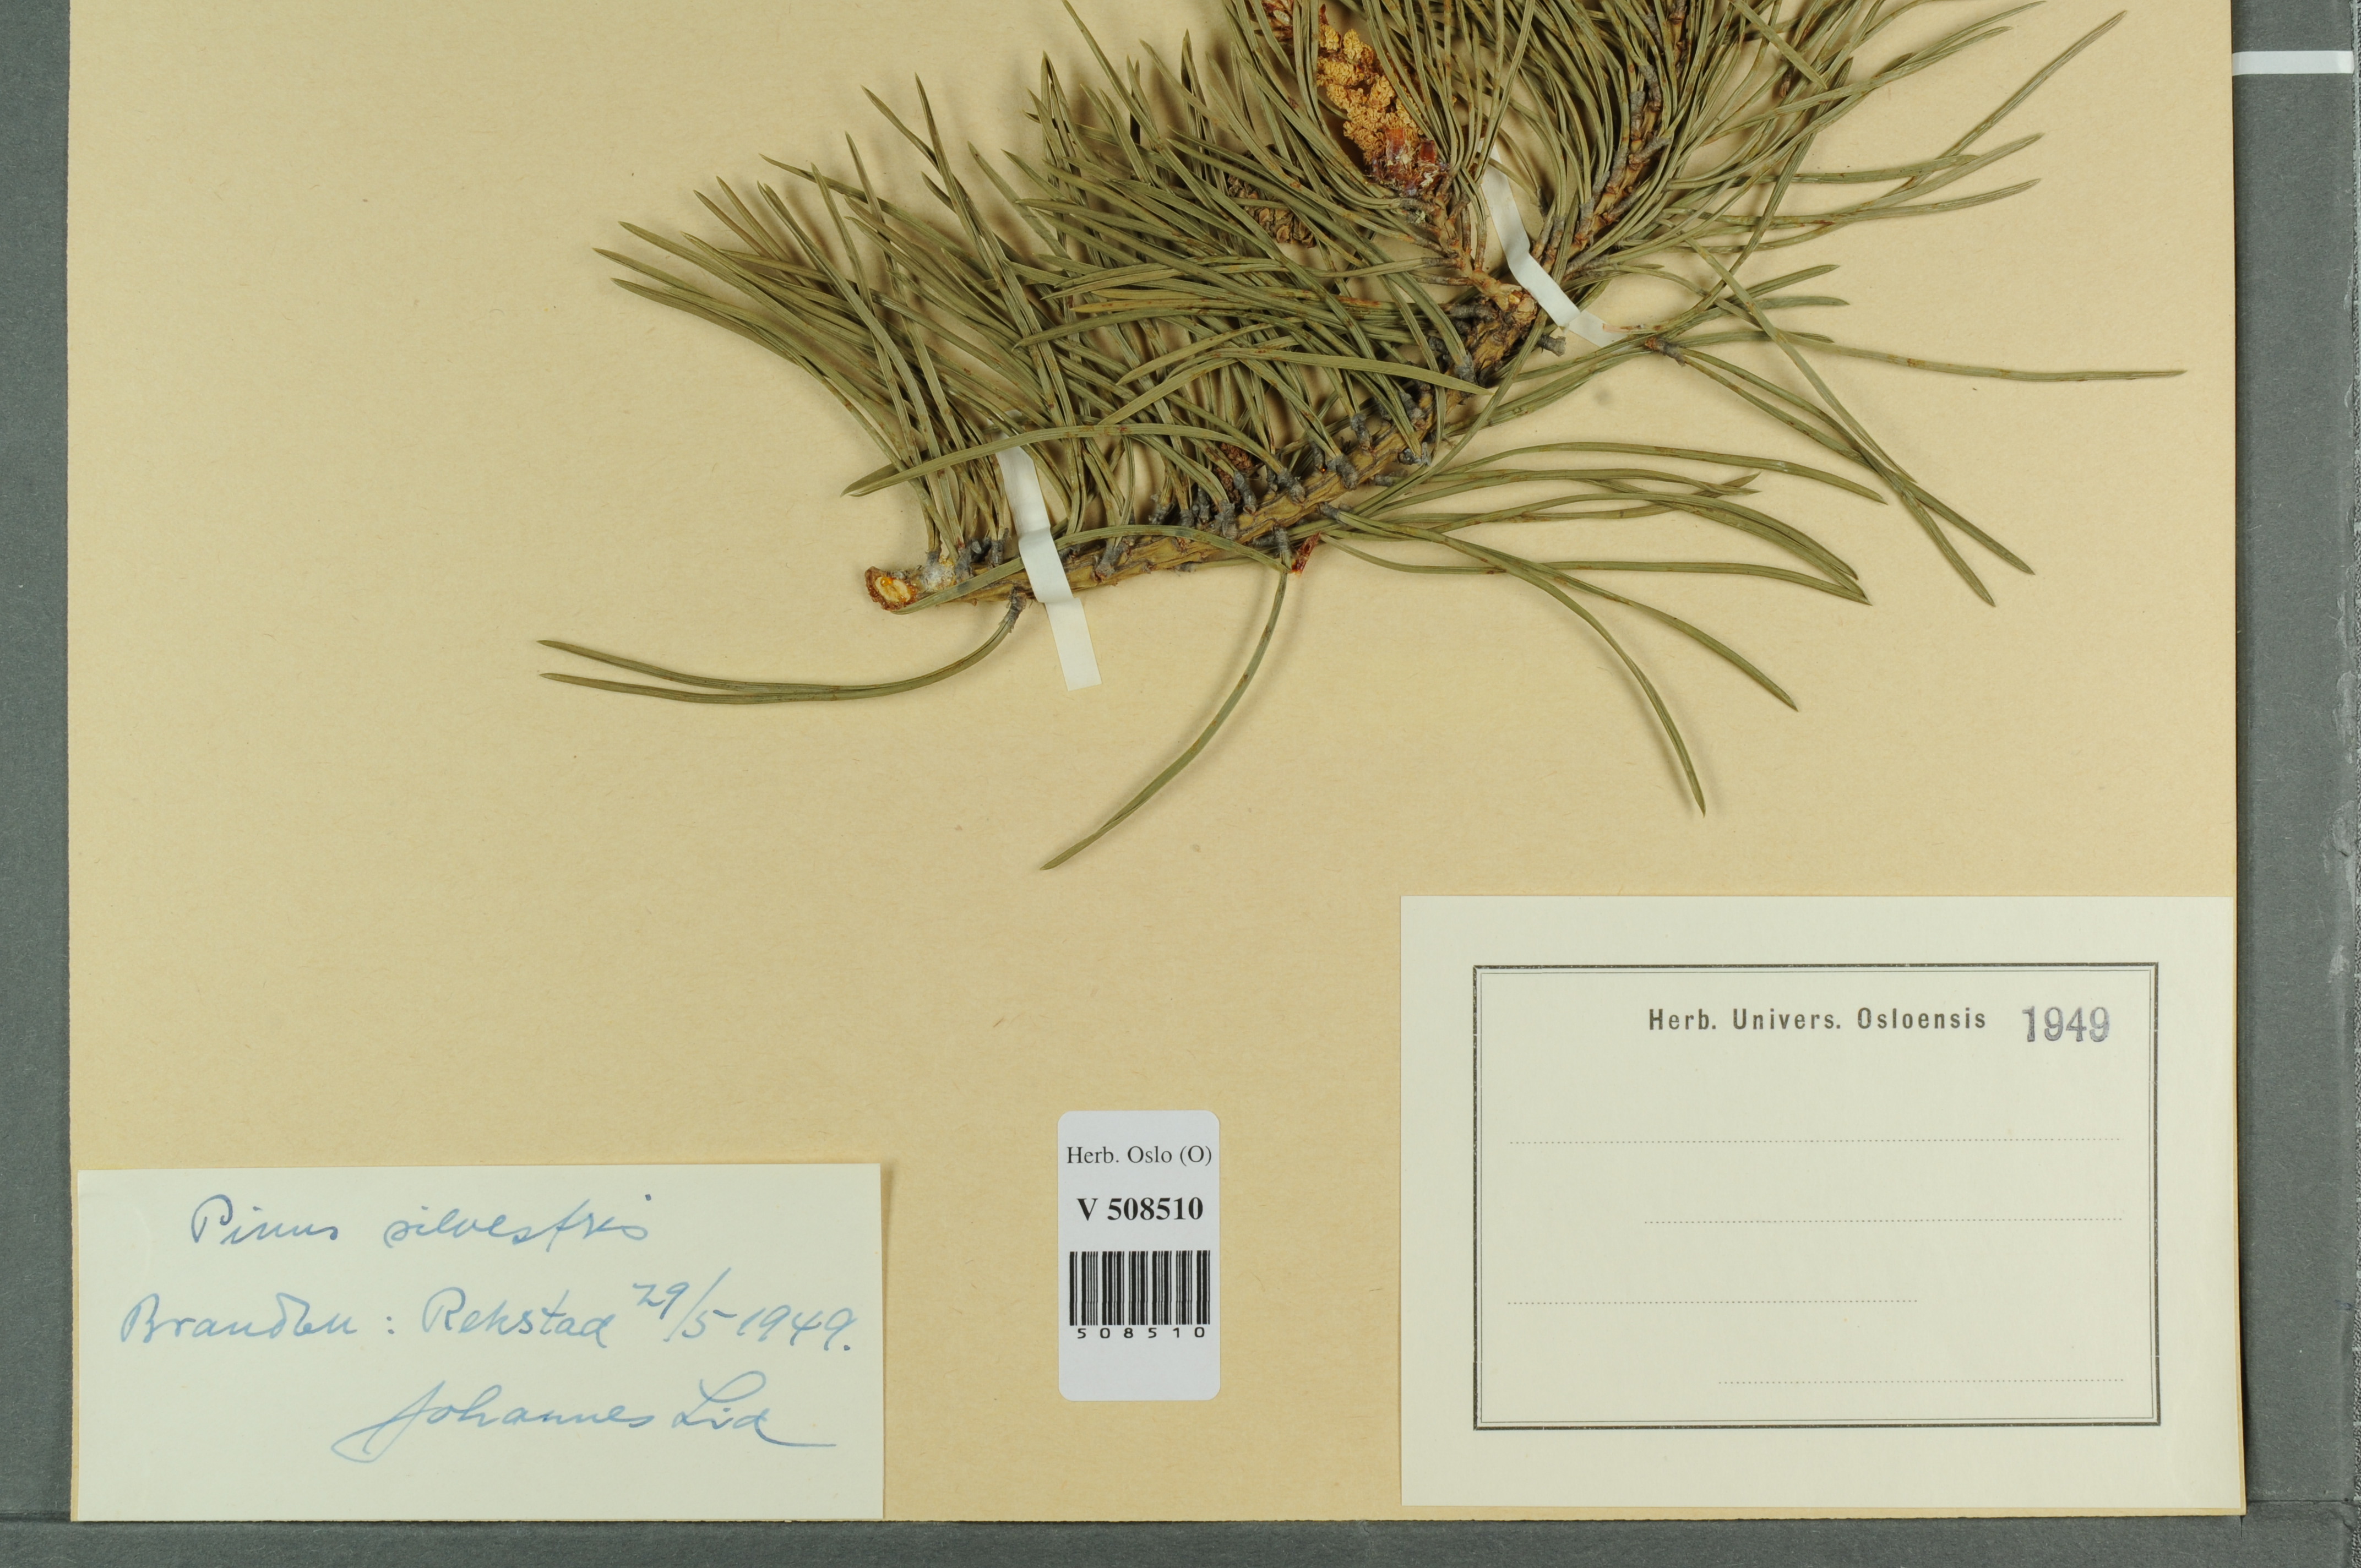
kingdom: Plantae
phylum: Tracheophyta
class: Pinopsida
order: Pinales
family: Pinaceae
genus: Pinus
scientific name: Pinus sylvestris
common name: Scots pine
